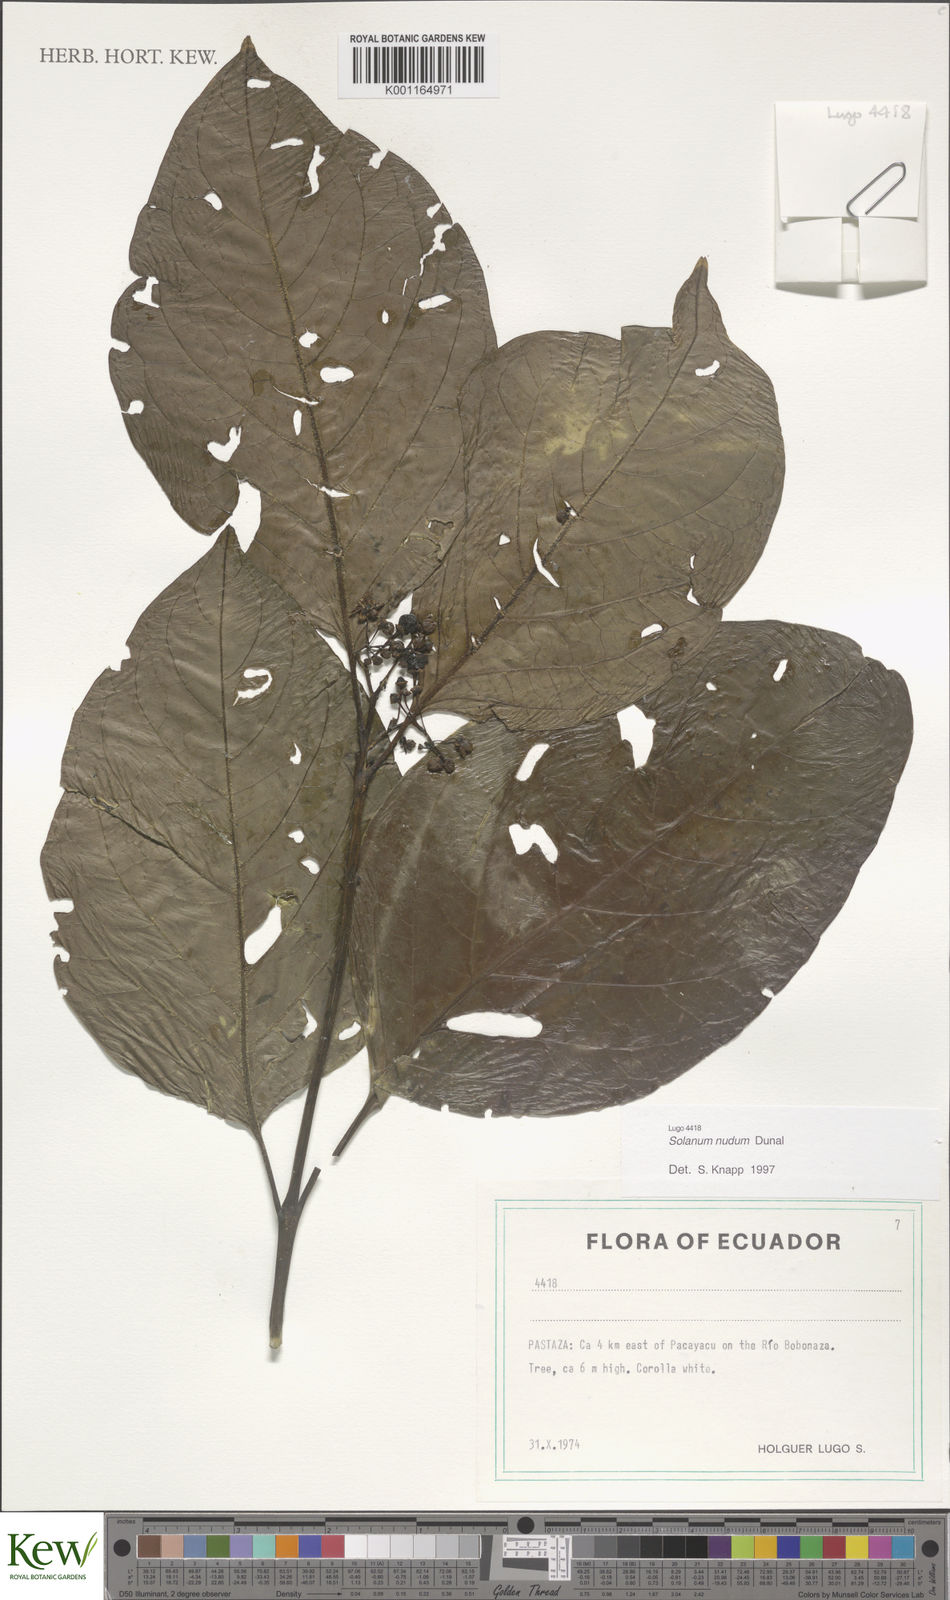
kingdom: Plantae
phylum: Tracheophyta
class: Magnoliopsida
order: Solanales
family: Solanaceae
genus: Solanum
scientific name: Solanum nudum
